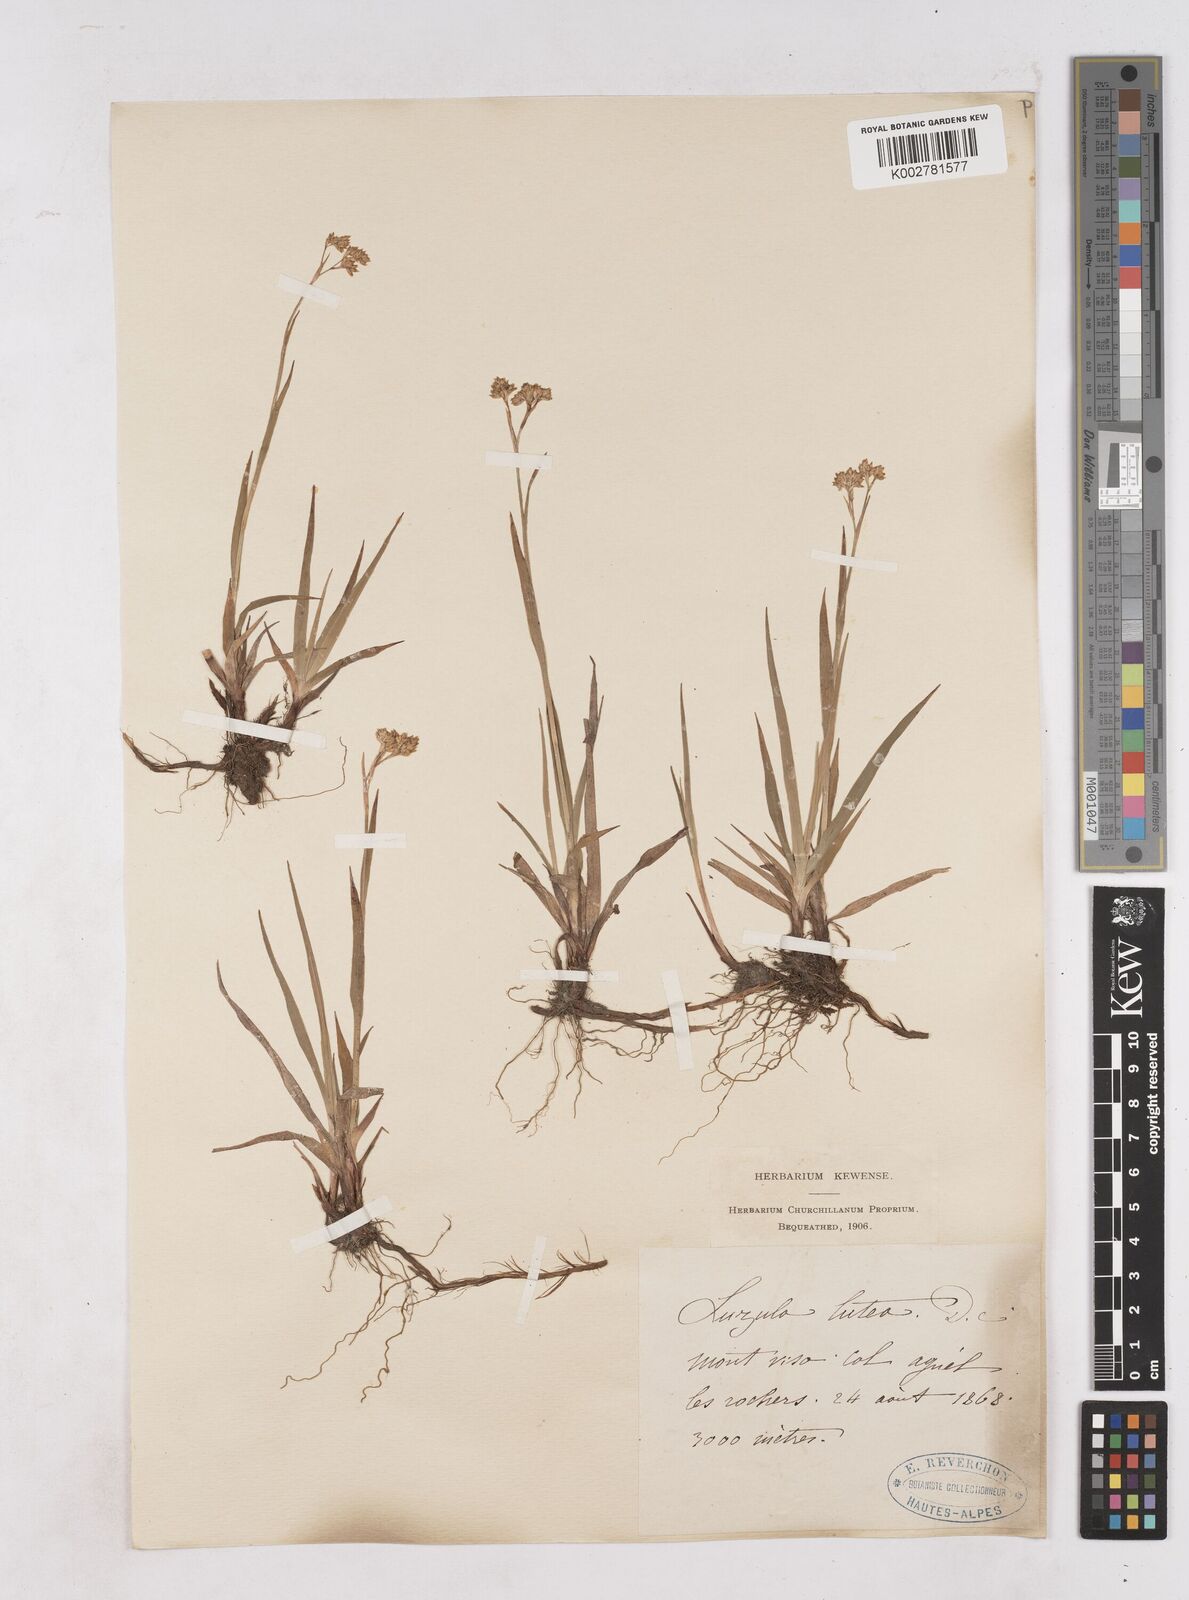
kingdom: Plantae
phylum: Tracheophyta
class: Liliopsida
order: Poales
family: Juncaceae
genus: Luzula
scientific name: Luzula lutea
